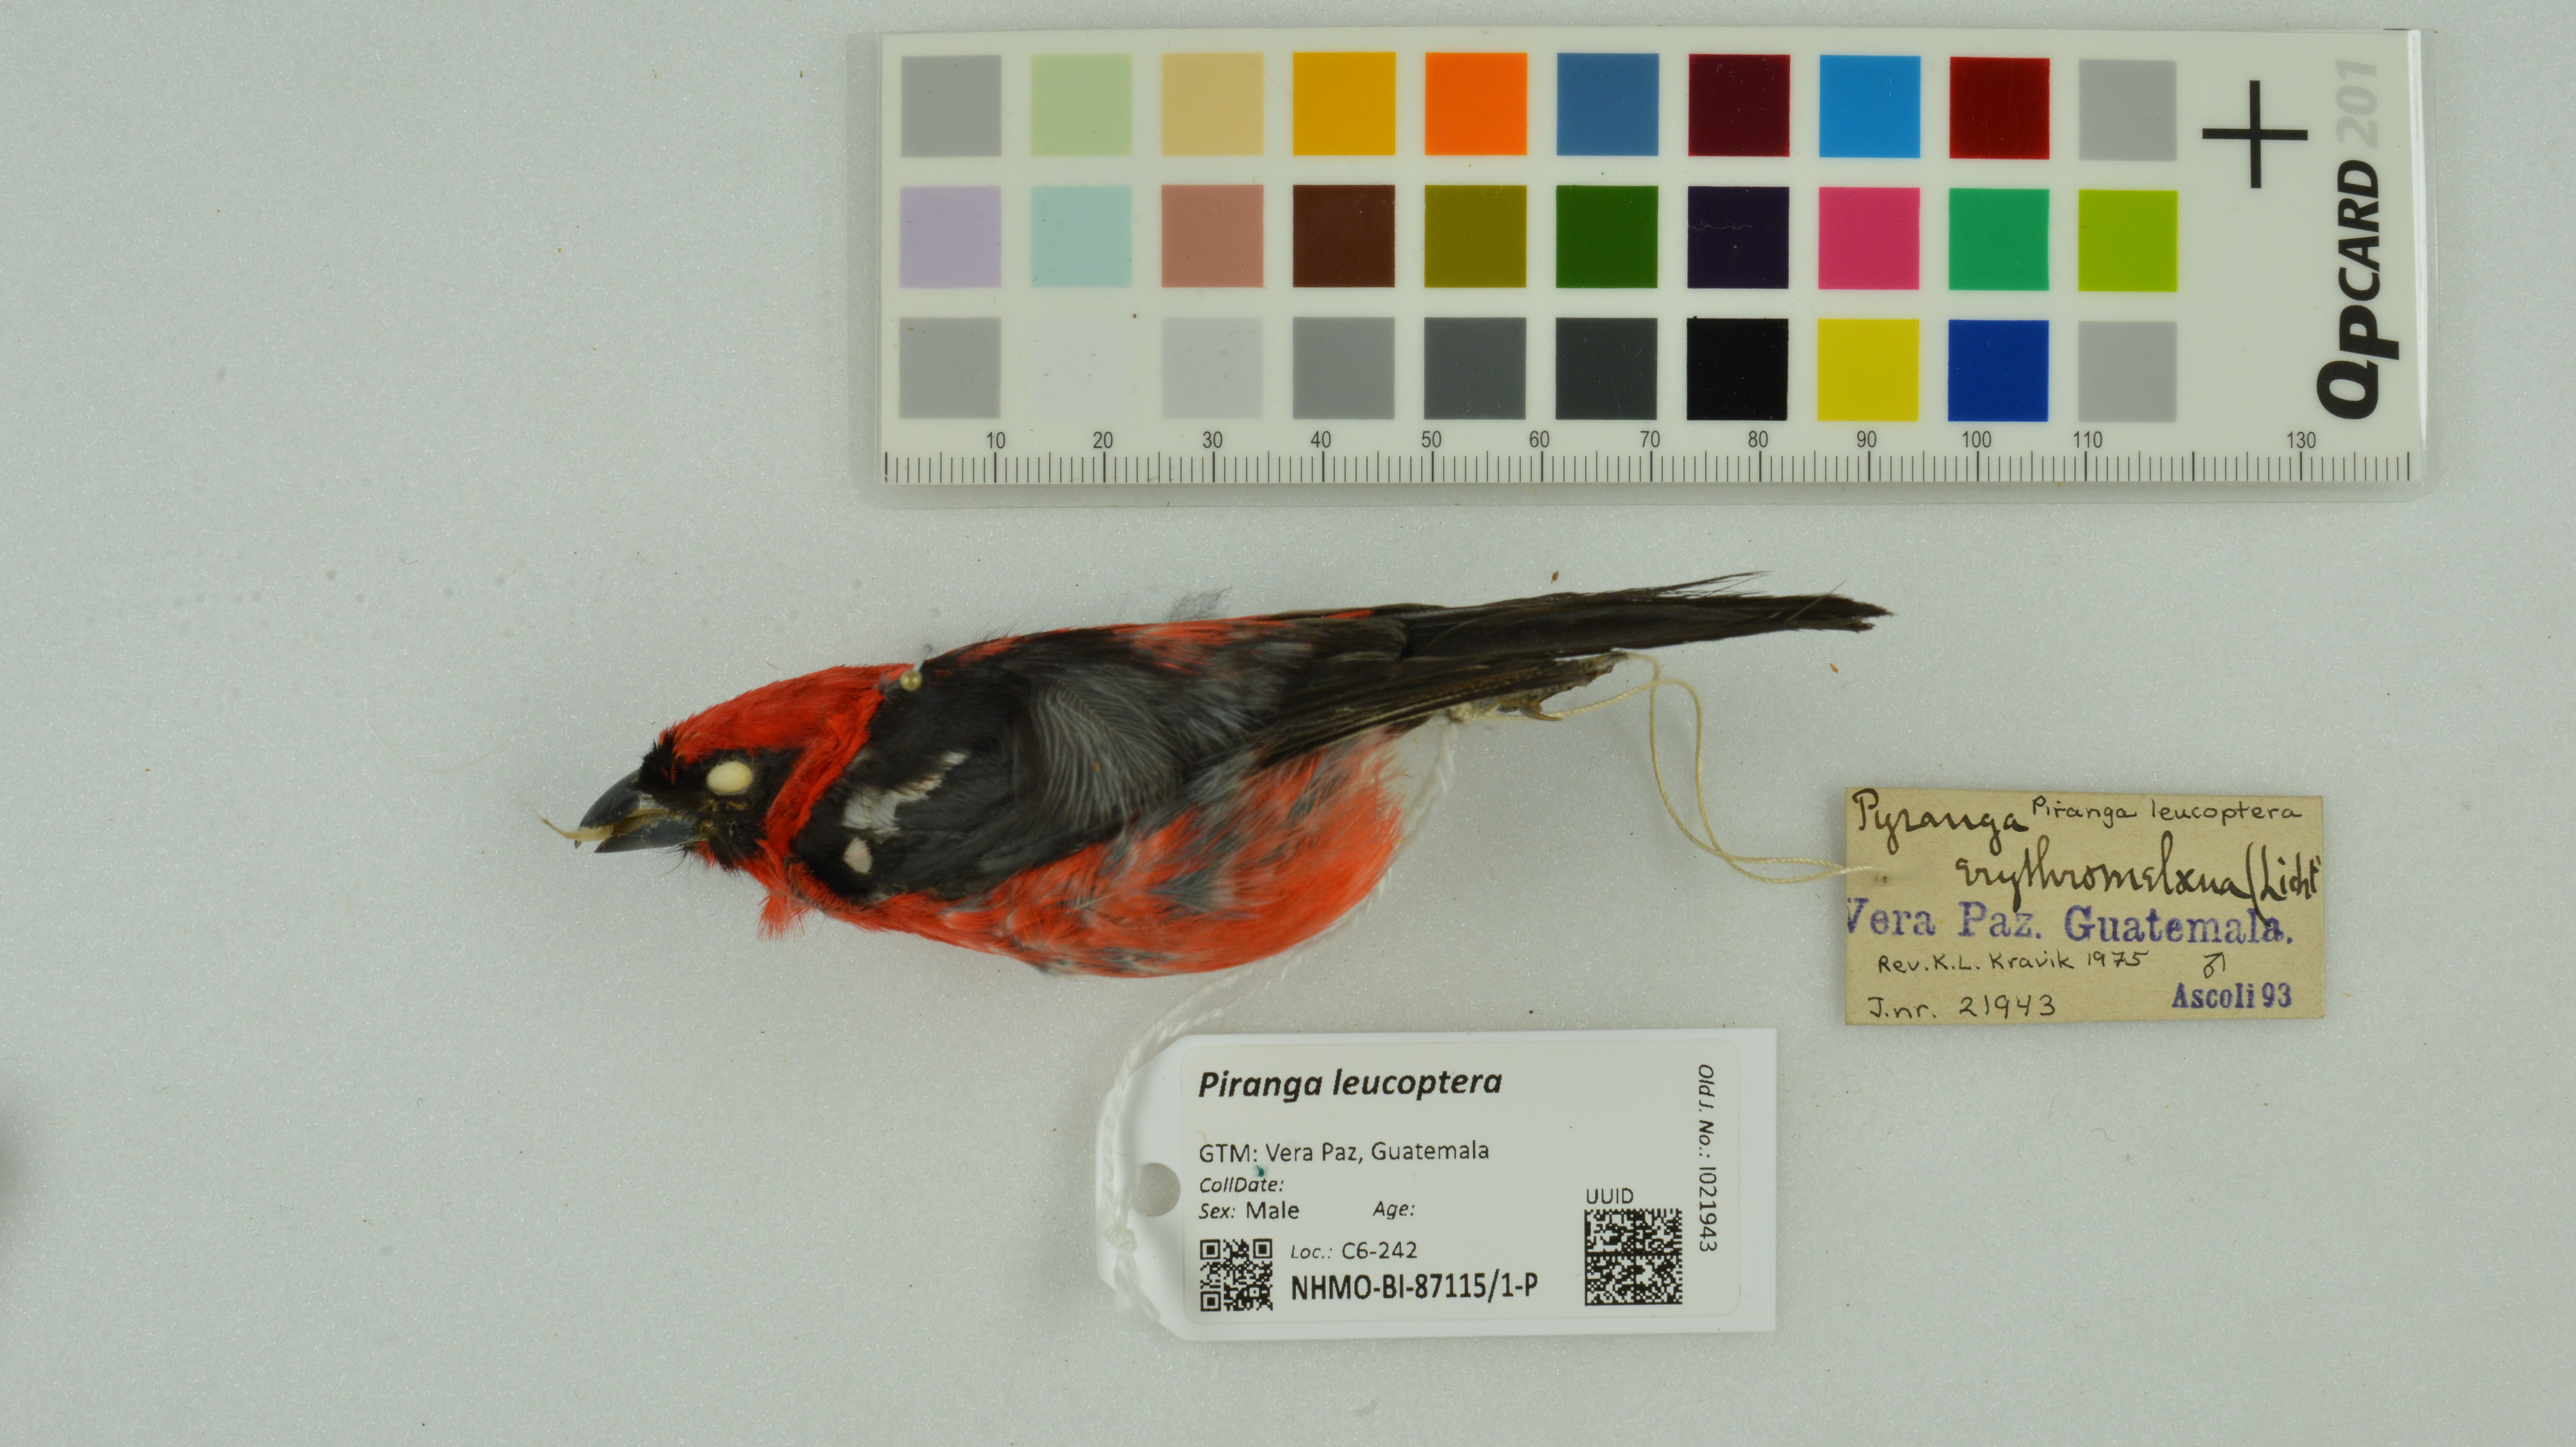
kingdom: Animalia
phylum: Chordata
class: Aves
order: Passeriformes
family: Cardinalidae
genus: Piranga
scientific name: Piranga leucoptera
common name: White-winged tanager
